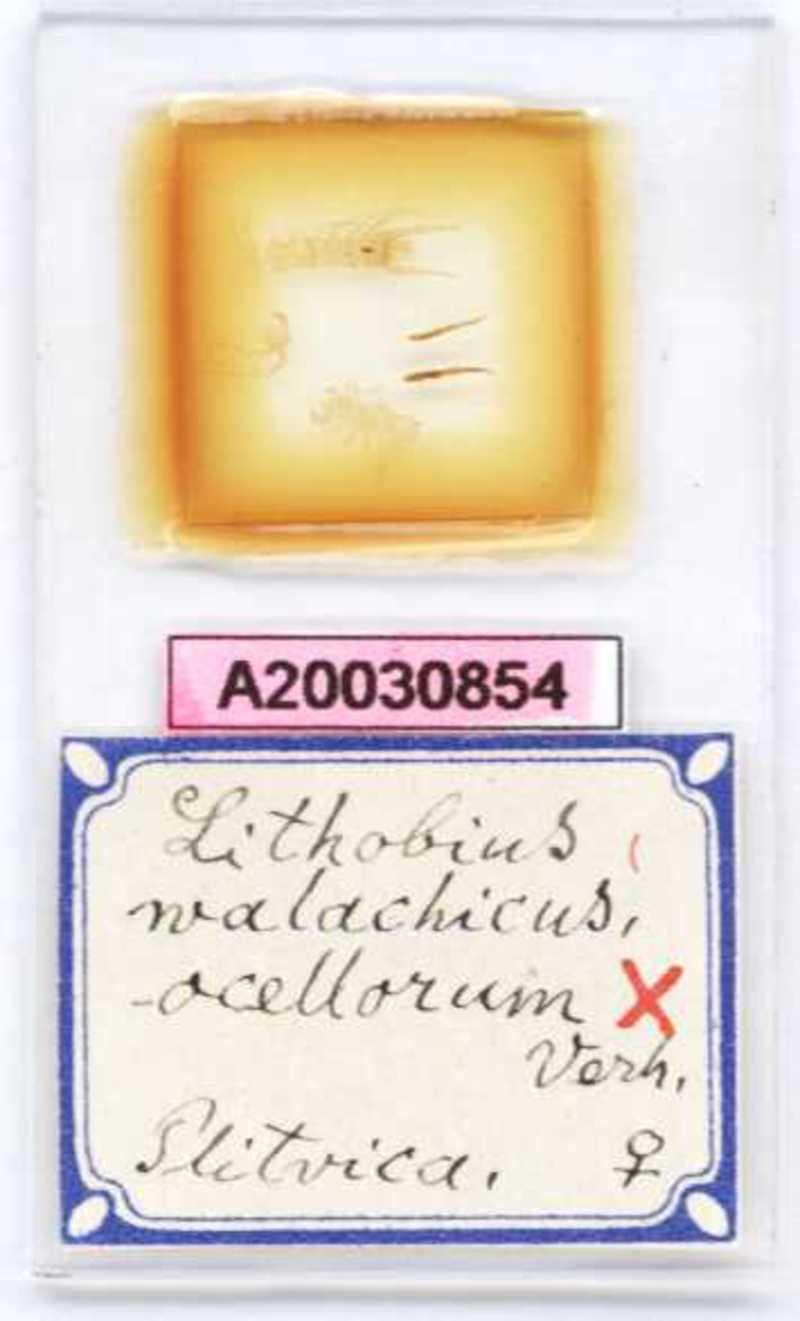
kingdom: Animalia
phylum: Arthropoda
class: Chilopoda
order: Lithobiomorpha
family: Lithobiidae
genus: Lithobius
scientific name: Lithobius lucifugus
